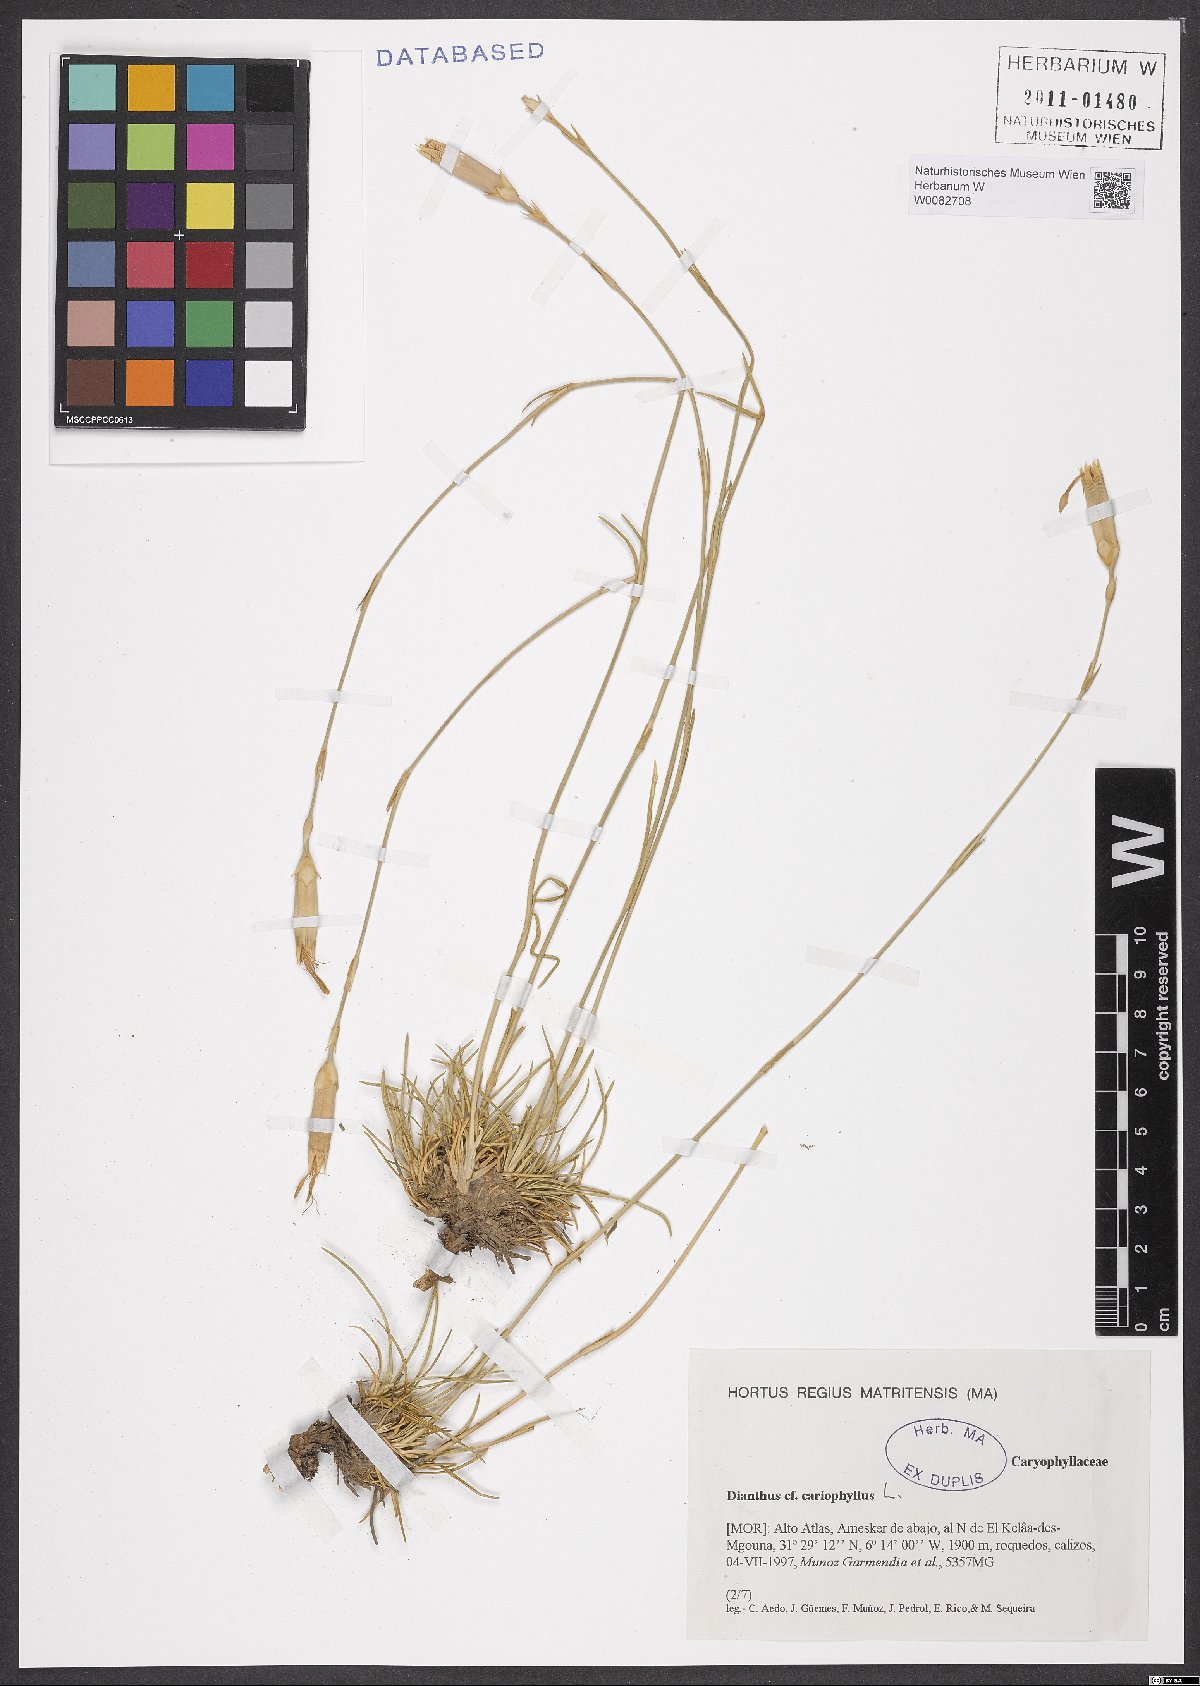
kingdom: Plantae
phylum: Tracheophyta
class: Magnoliopsida
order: Caryophyllales
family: Caryophyllaceae
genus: Dianthus
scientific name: Dianthus caryophyllus
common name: Clove pink
